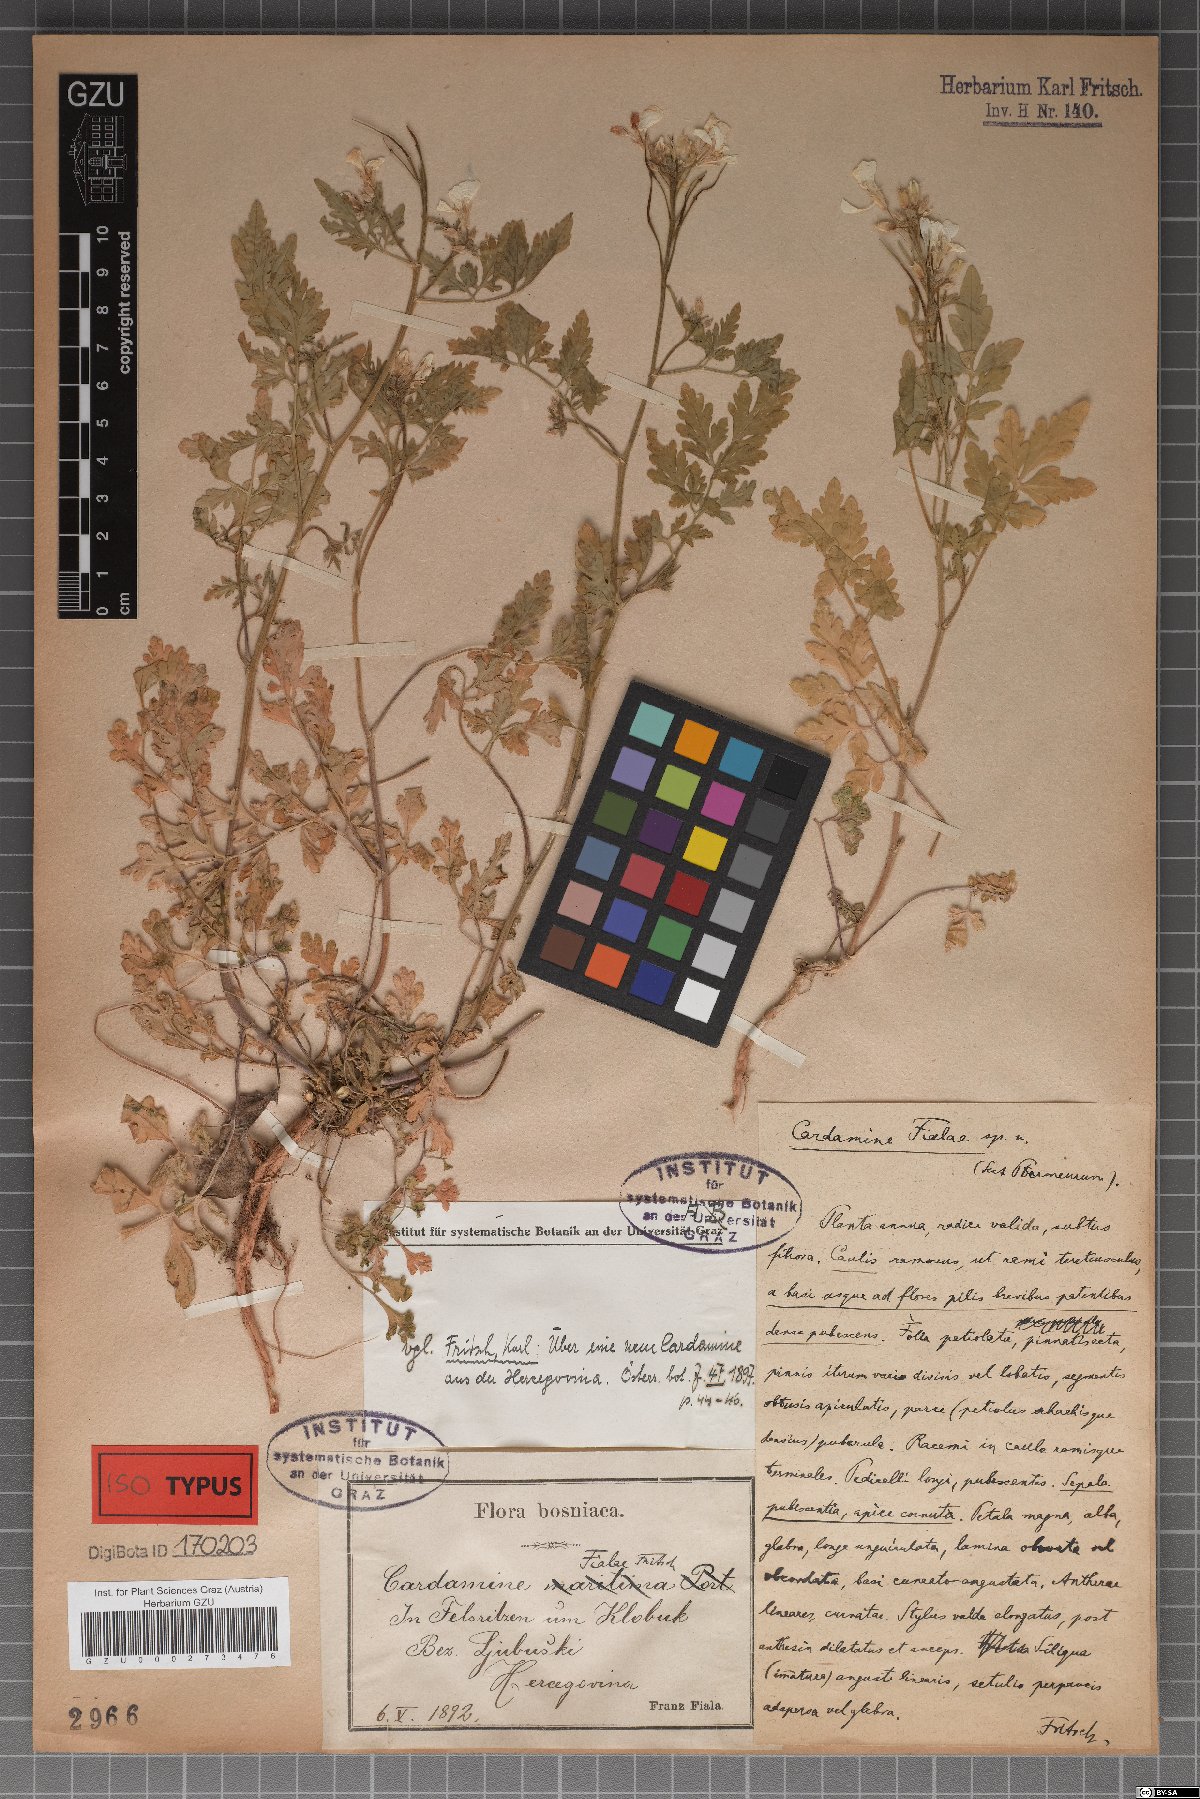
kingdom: Plantae
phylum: Tracheophyta
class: Magnoliopsida
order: Brassicales
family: Brassicaceae
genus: Cardamine
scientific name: Cardamine maritima
